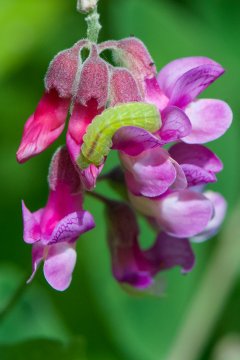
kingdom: Animalia
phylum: Arthropoda
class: Insecta
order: Lepidoptera
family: Lycaenidae
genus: Glaucopsyche
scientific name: Glaucopsyche lygdamus
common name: Silvery Blue
